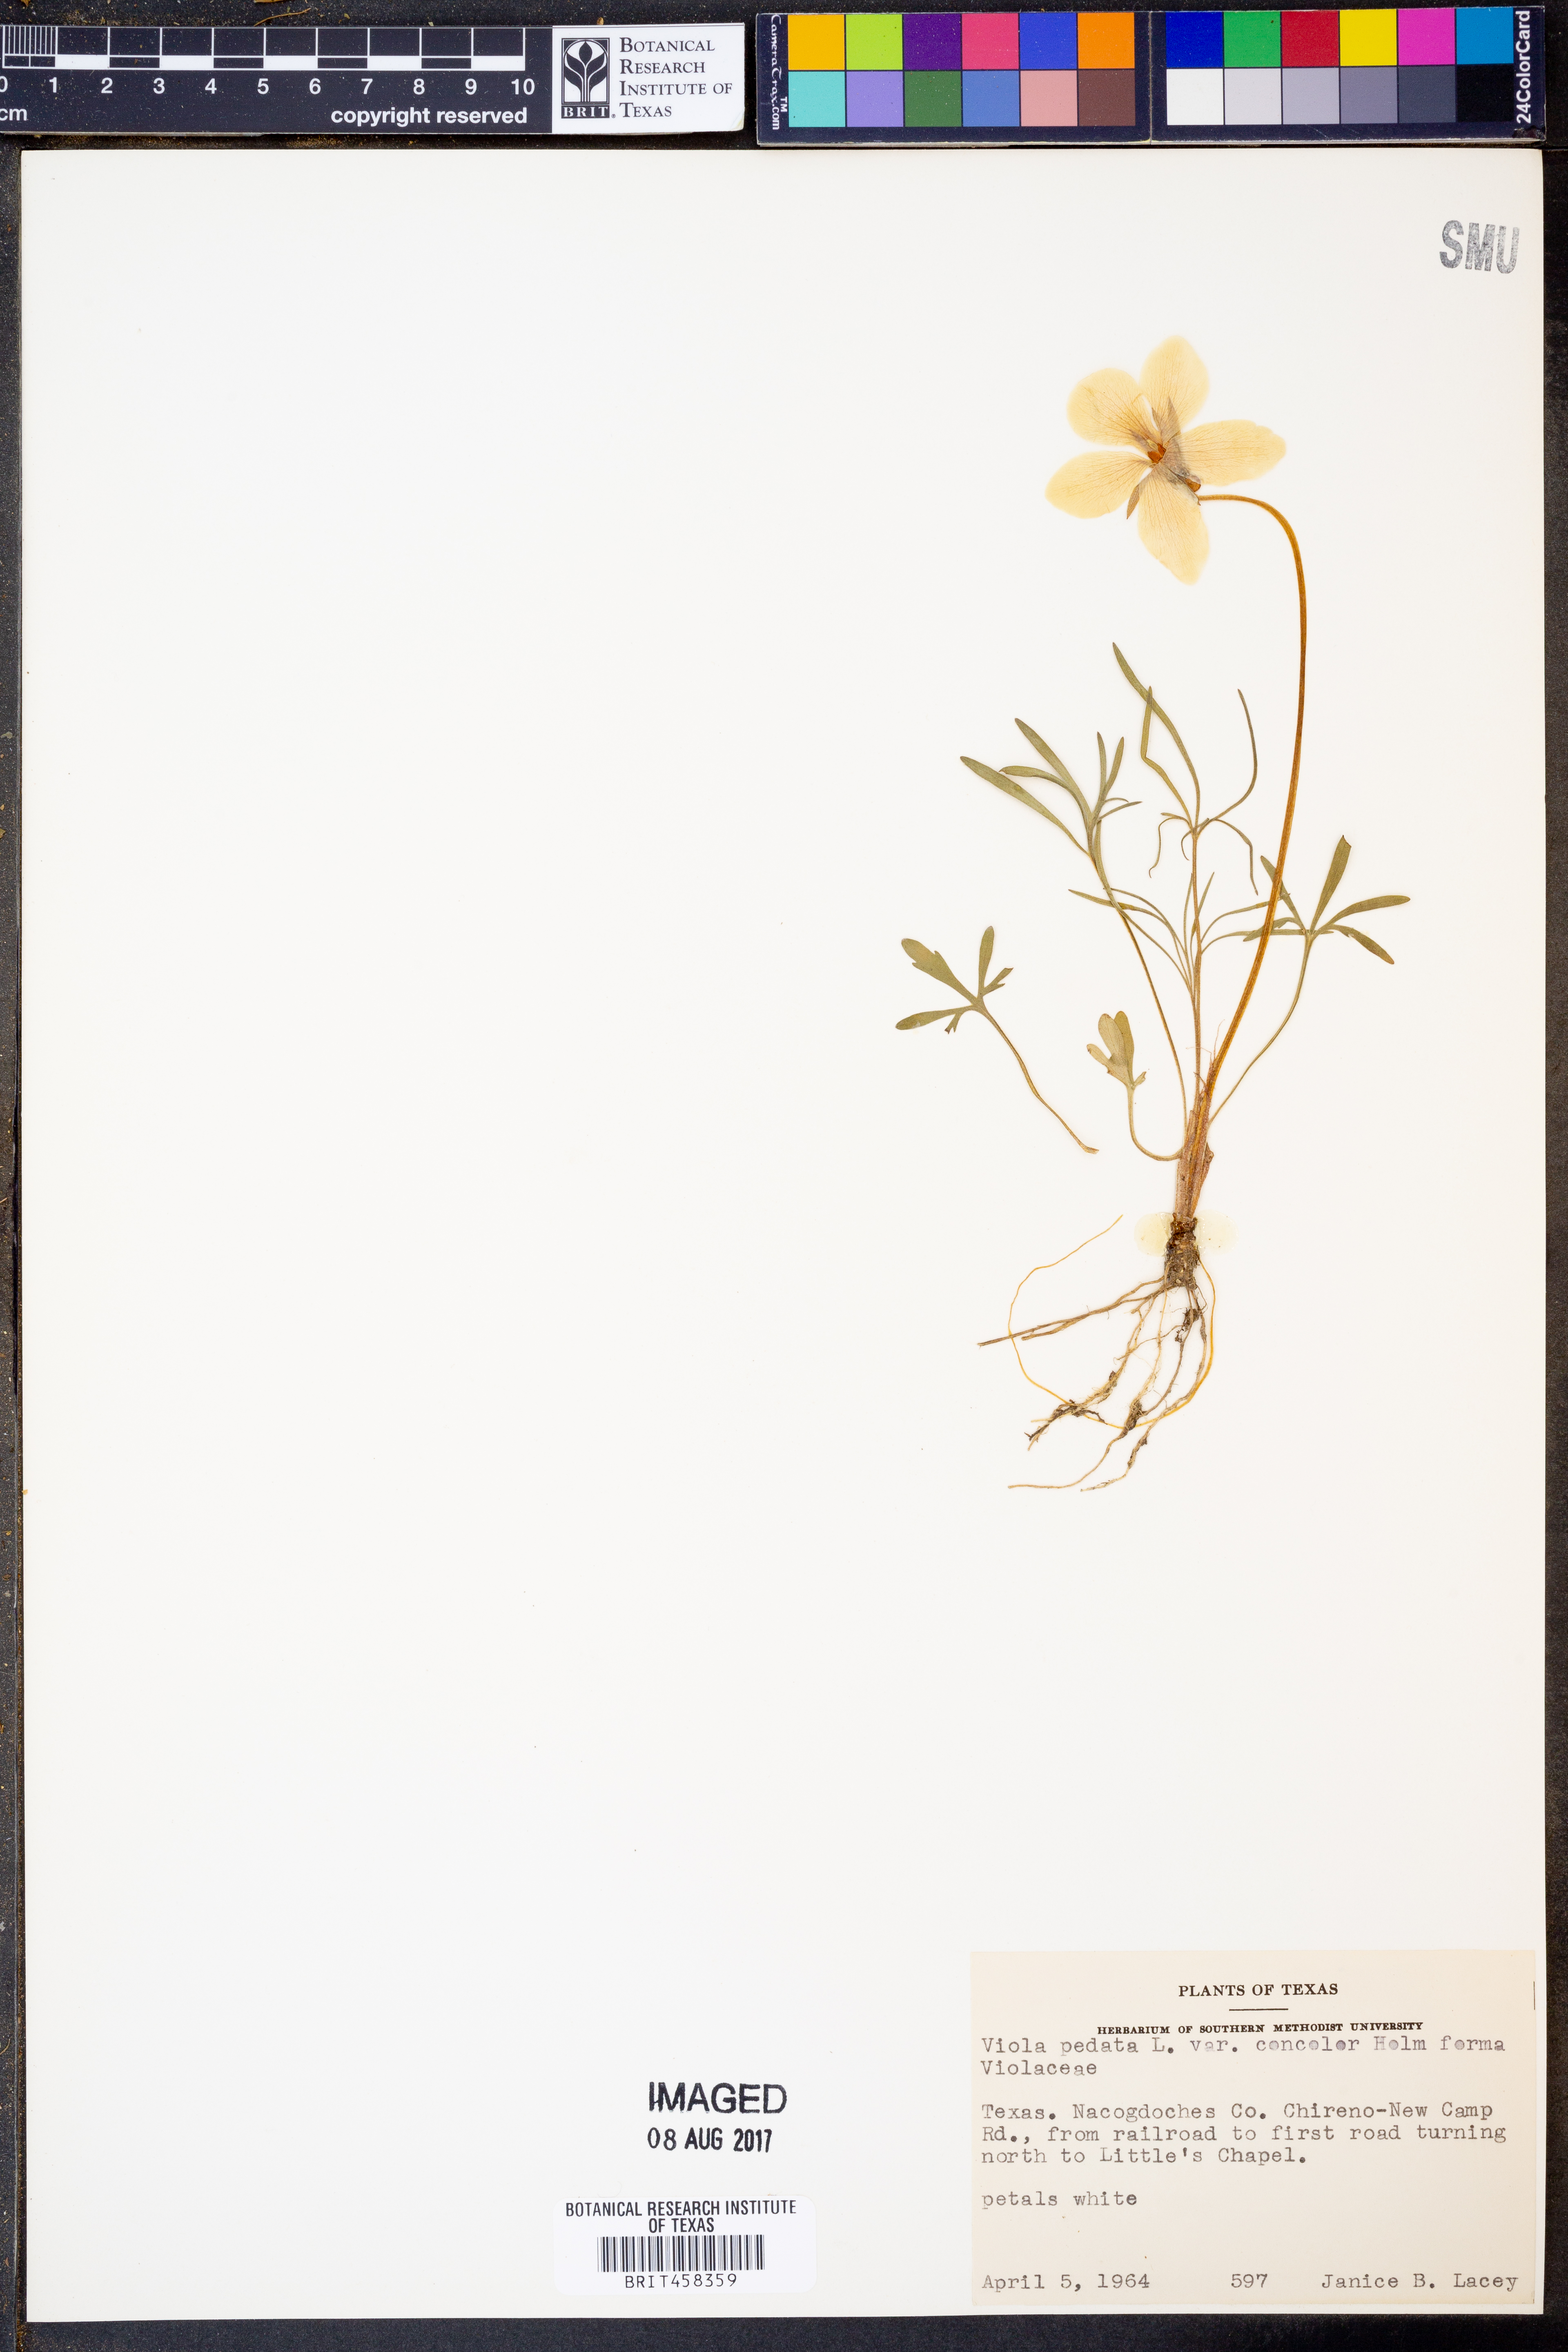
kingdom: Plantae
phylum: Tracheophyta
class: Magnoliopsida
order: Malpighiales
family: Violaceae
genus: Viola
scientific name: Viola pedata
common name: Pansy violet
